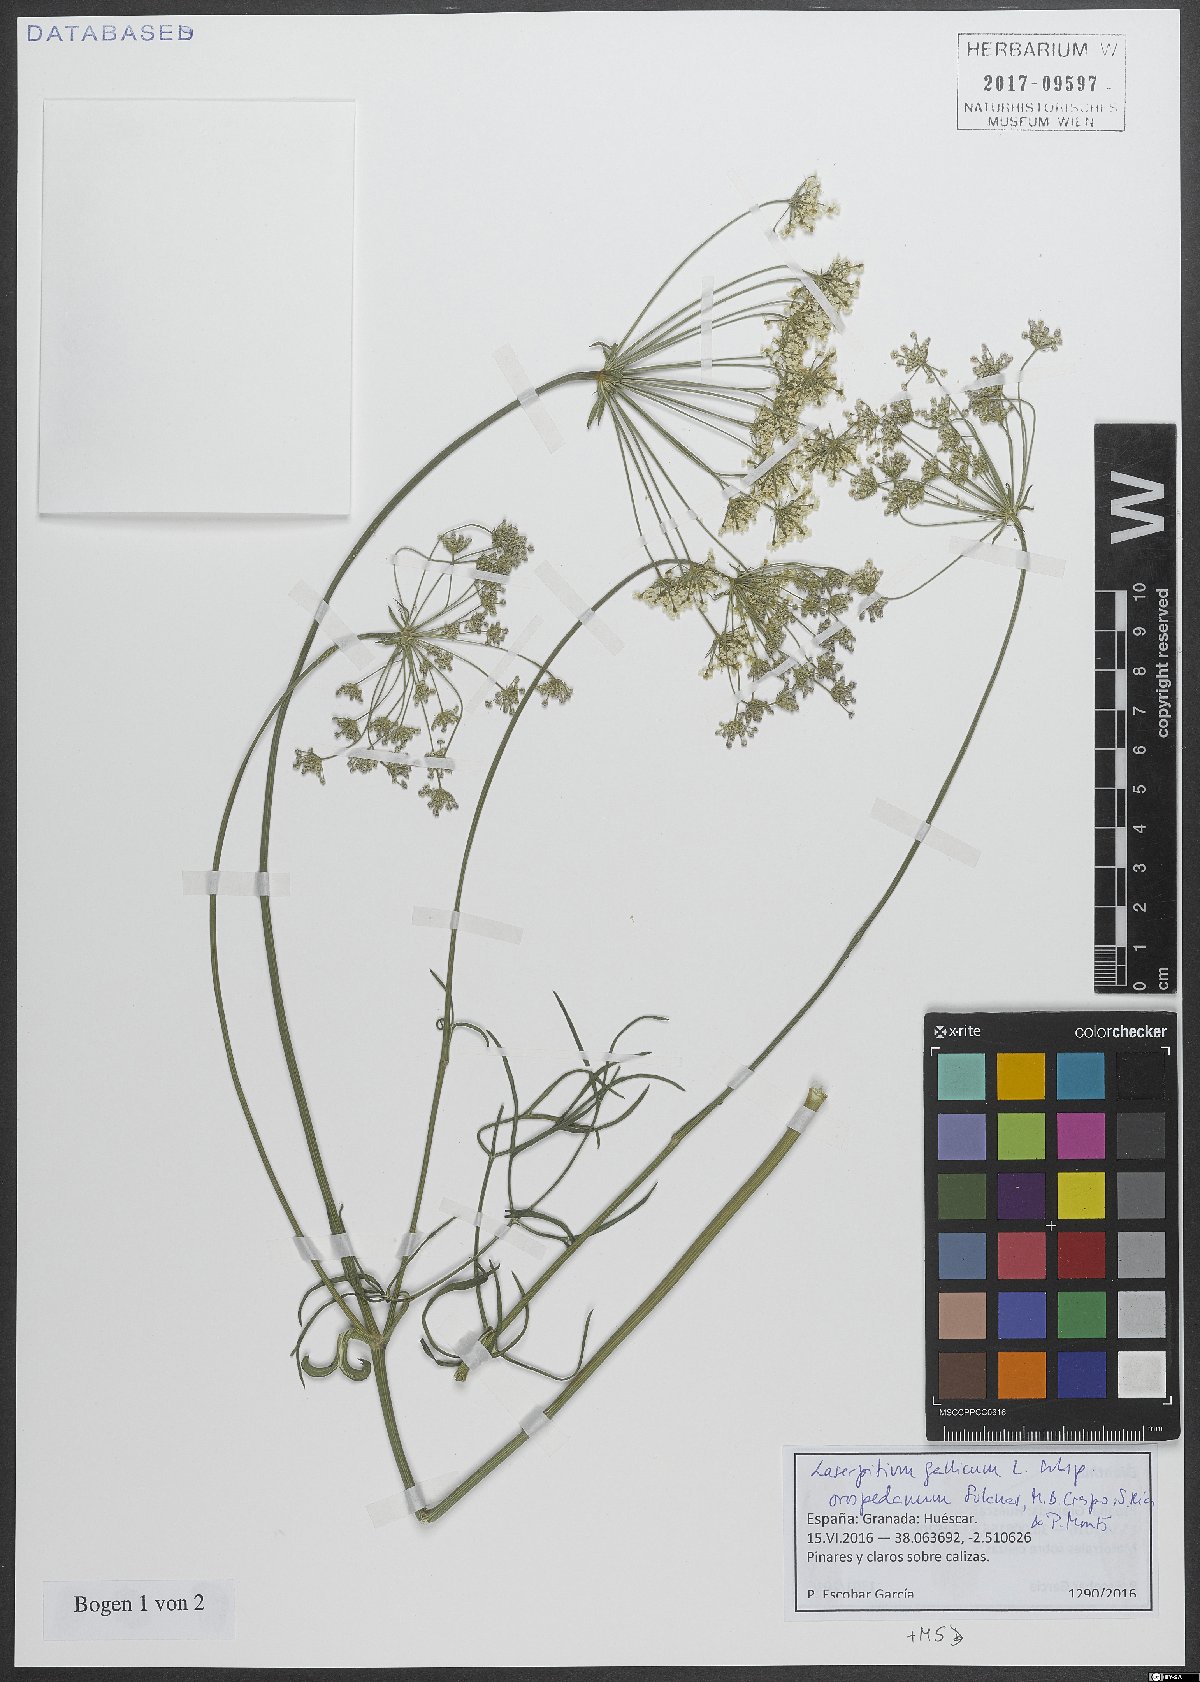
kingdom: Plantae
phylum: Tracheophyta
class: Magnoliopsida
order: Apiales
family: Apiaceae
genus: Laserpitium
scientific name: Laserpitium gallicum
